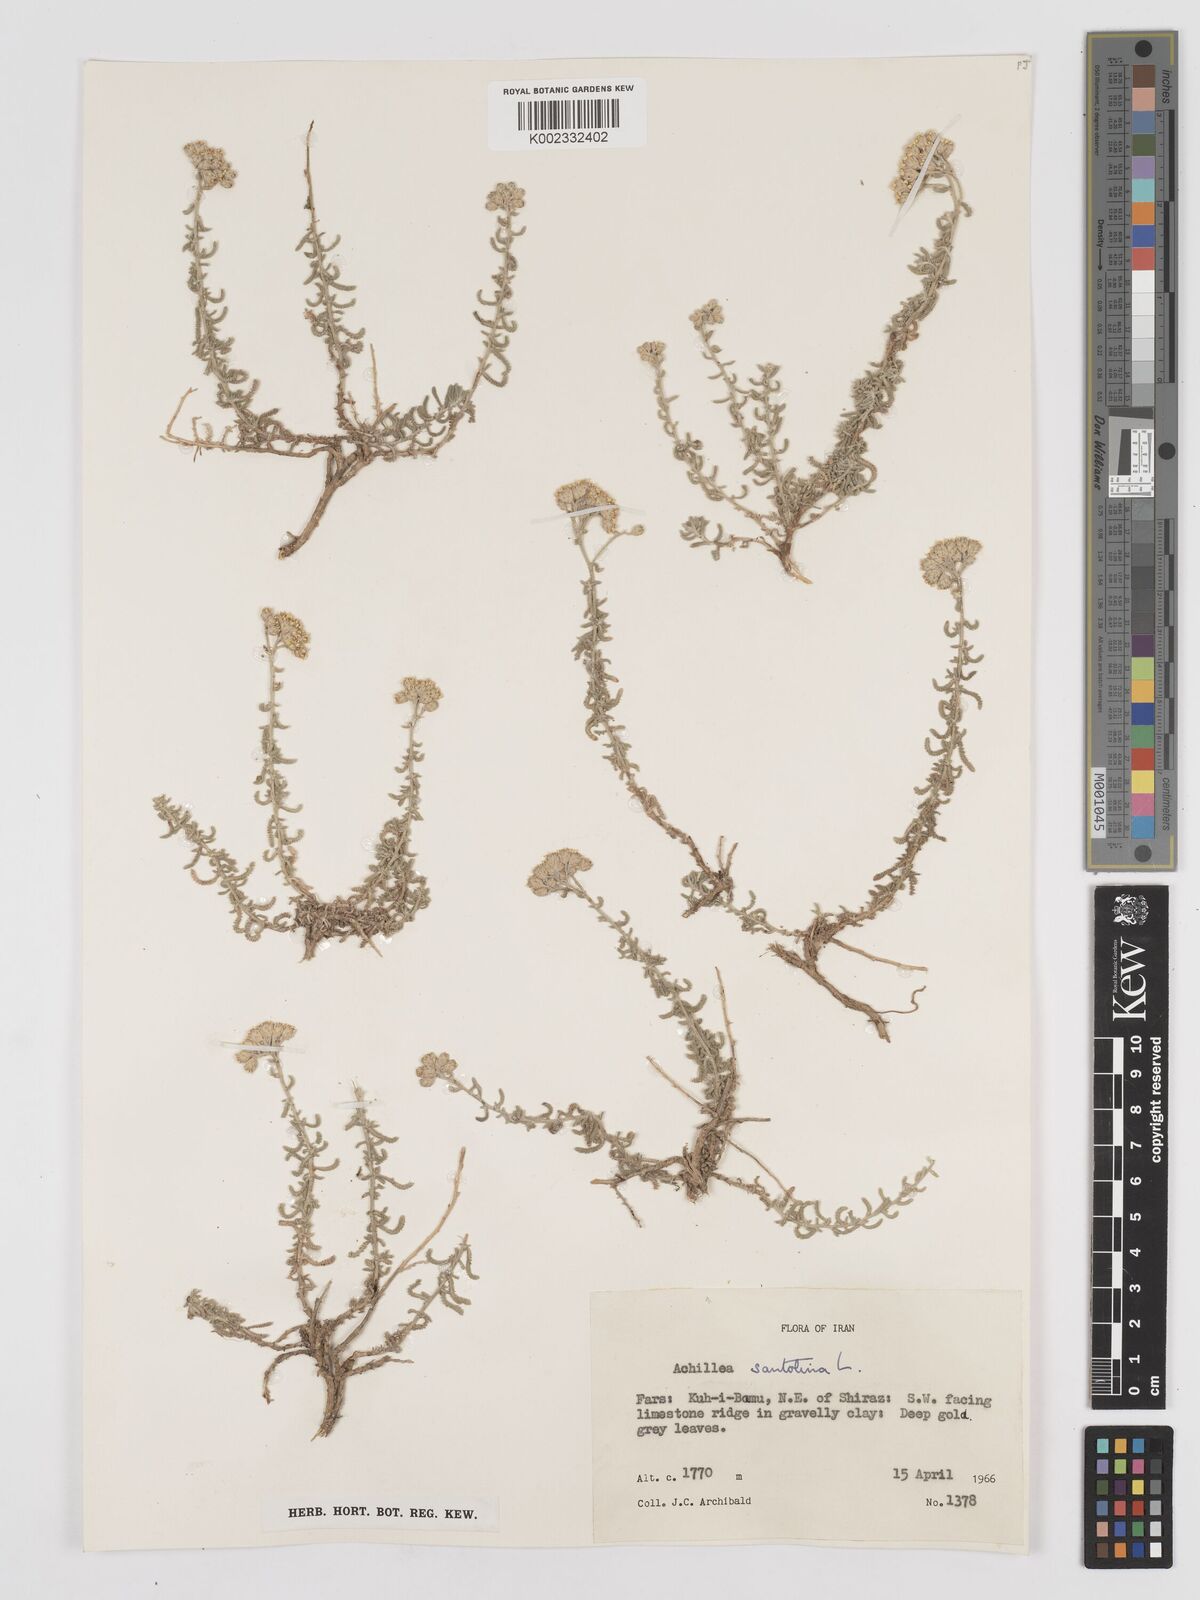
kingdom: Plantae
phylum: Tracheophyta
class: Magnoliopsida
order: Asterales
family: Asteraceae
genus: Achillea
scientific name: Achillea cretica
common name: Chamomile-leaved lavender-cotton
